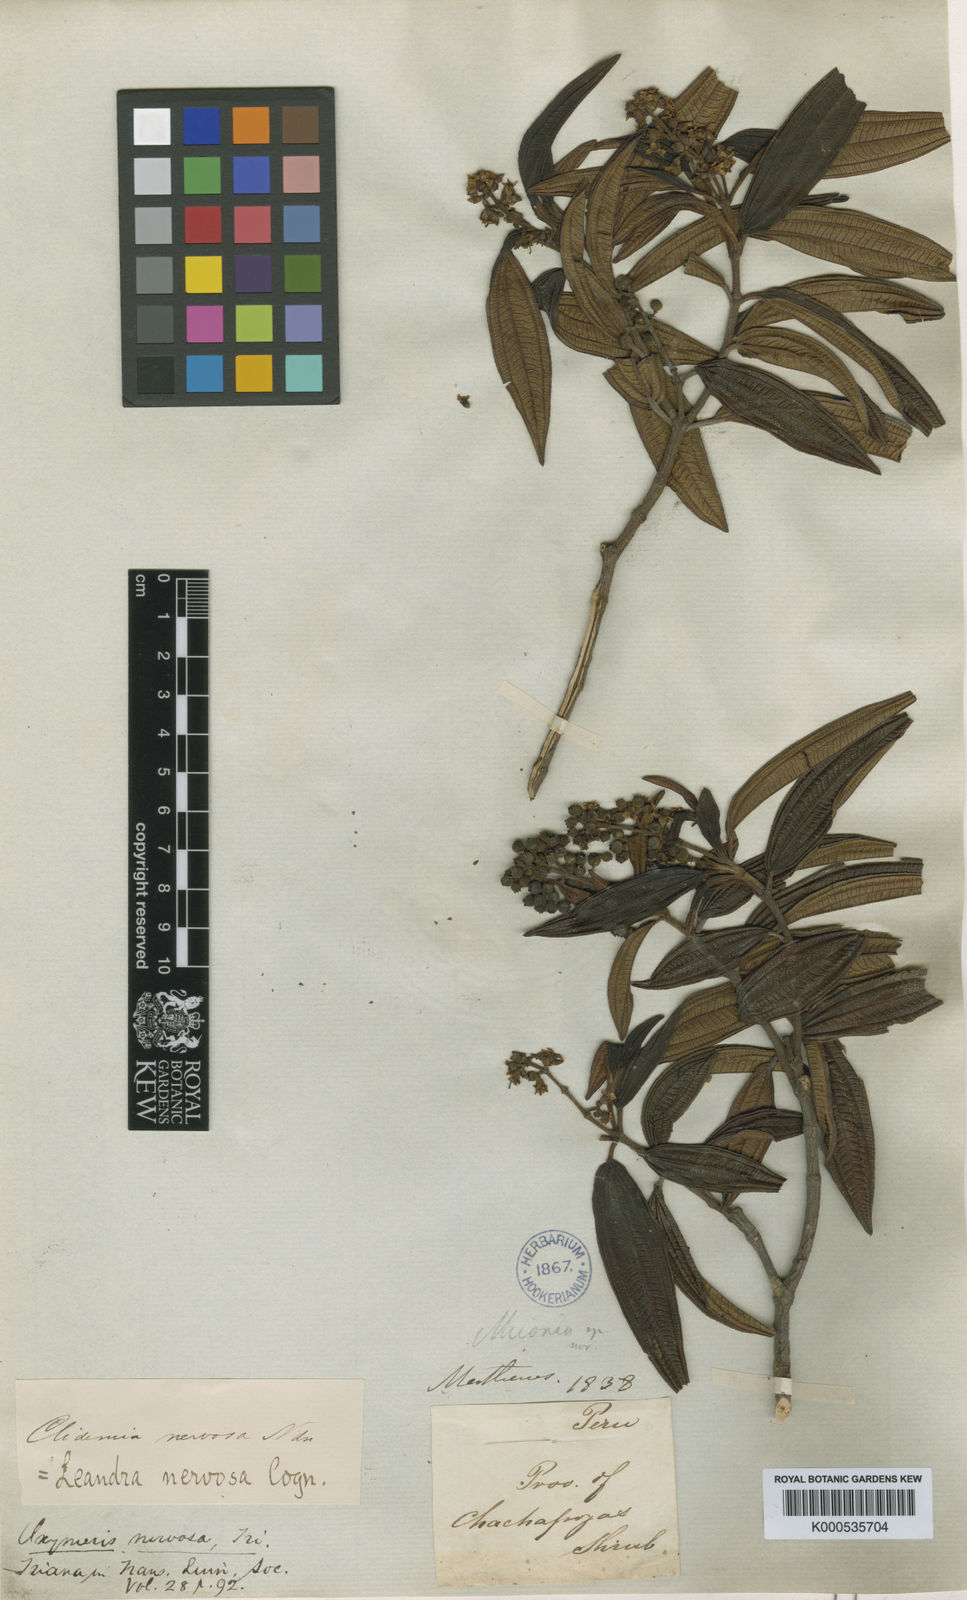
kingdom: Plantae
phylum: Tracheophyta
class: Magnoliopsida
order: Myrtales
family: Melastomataceae
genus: Miconia
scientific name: Miconia nervosissima
